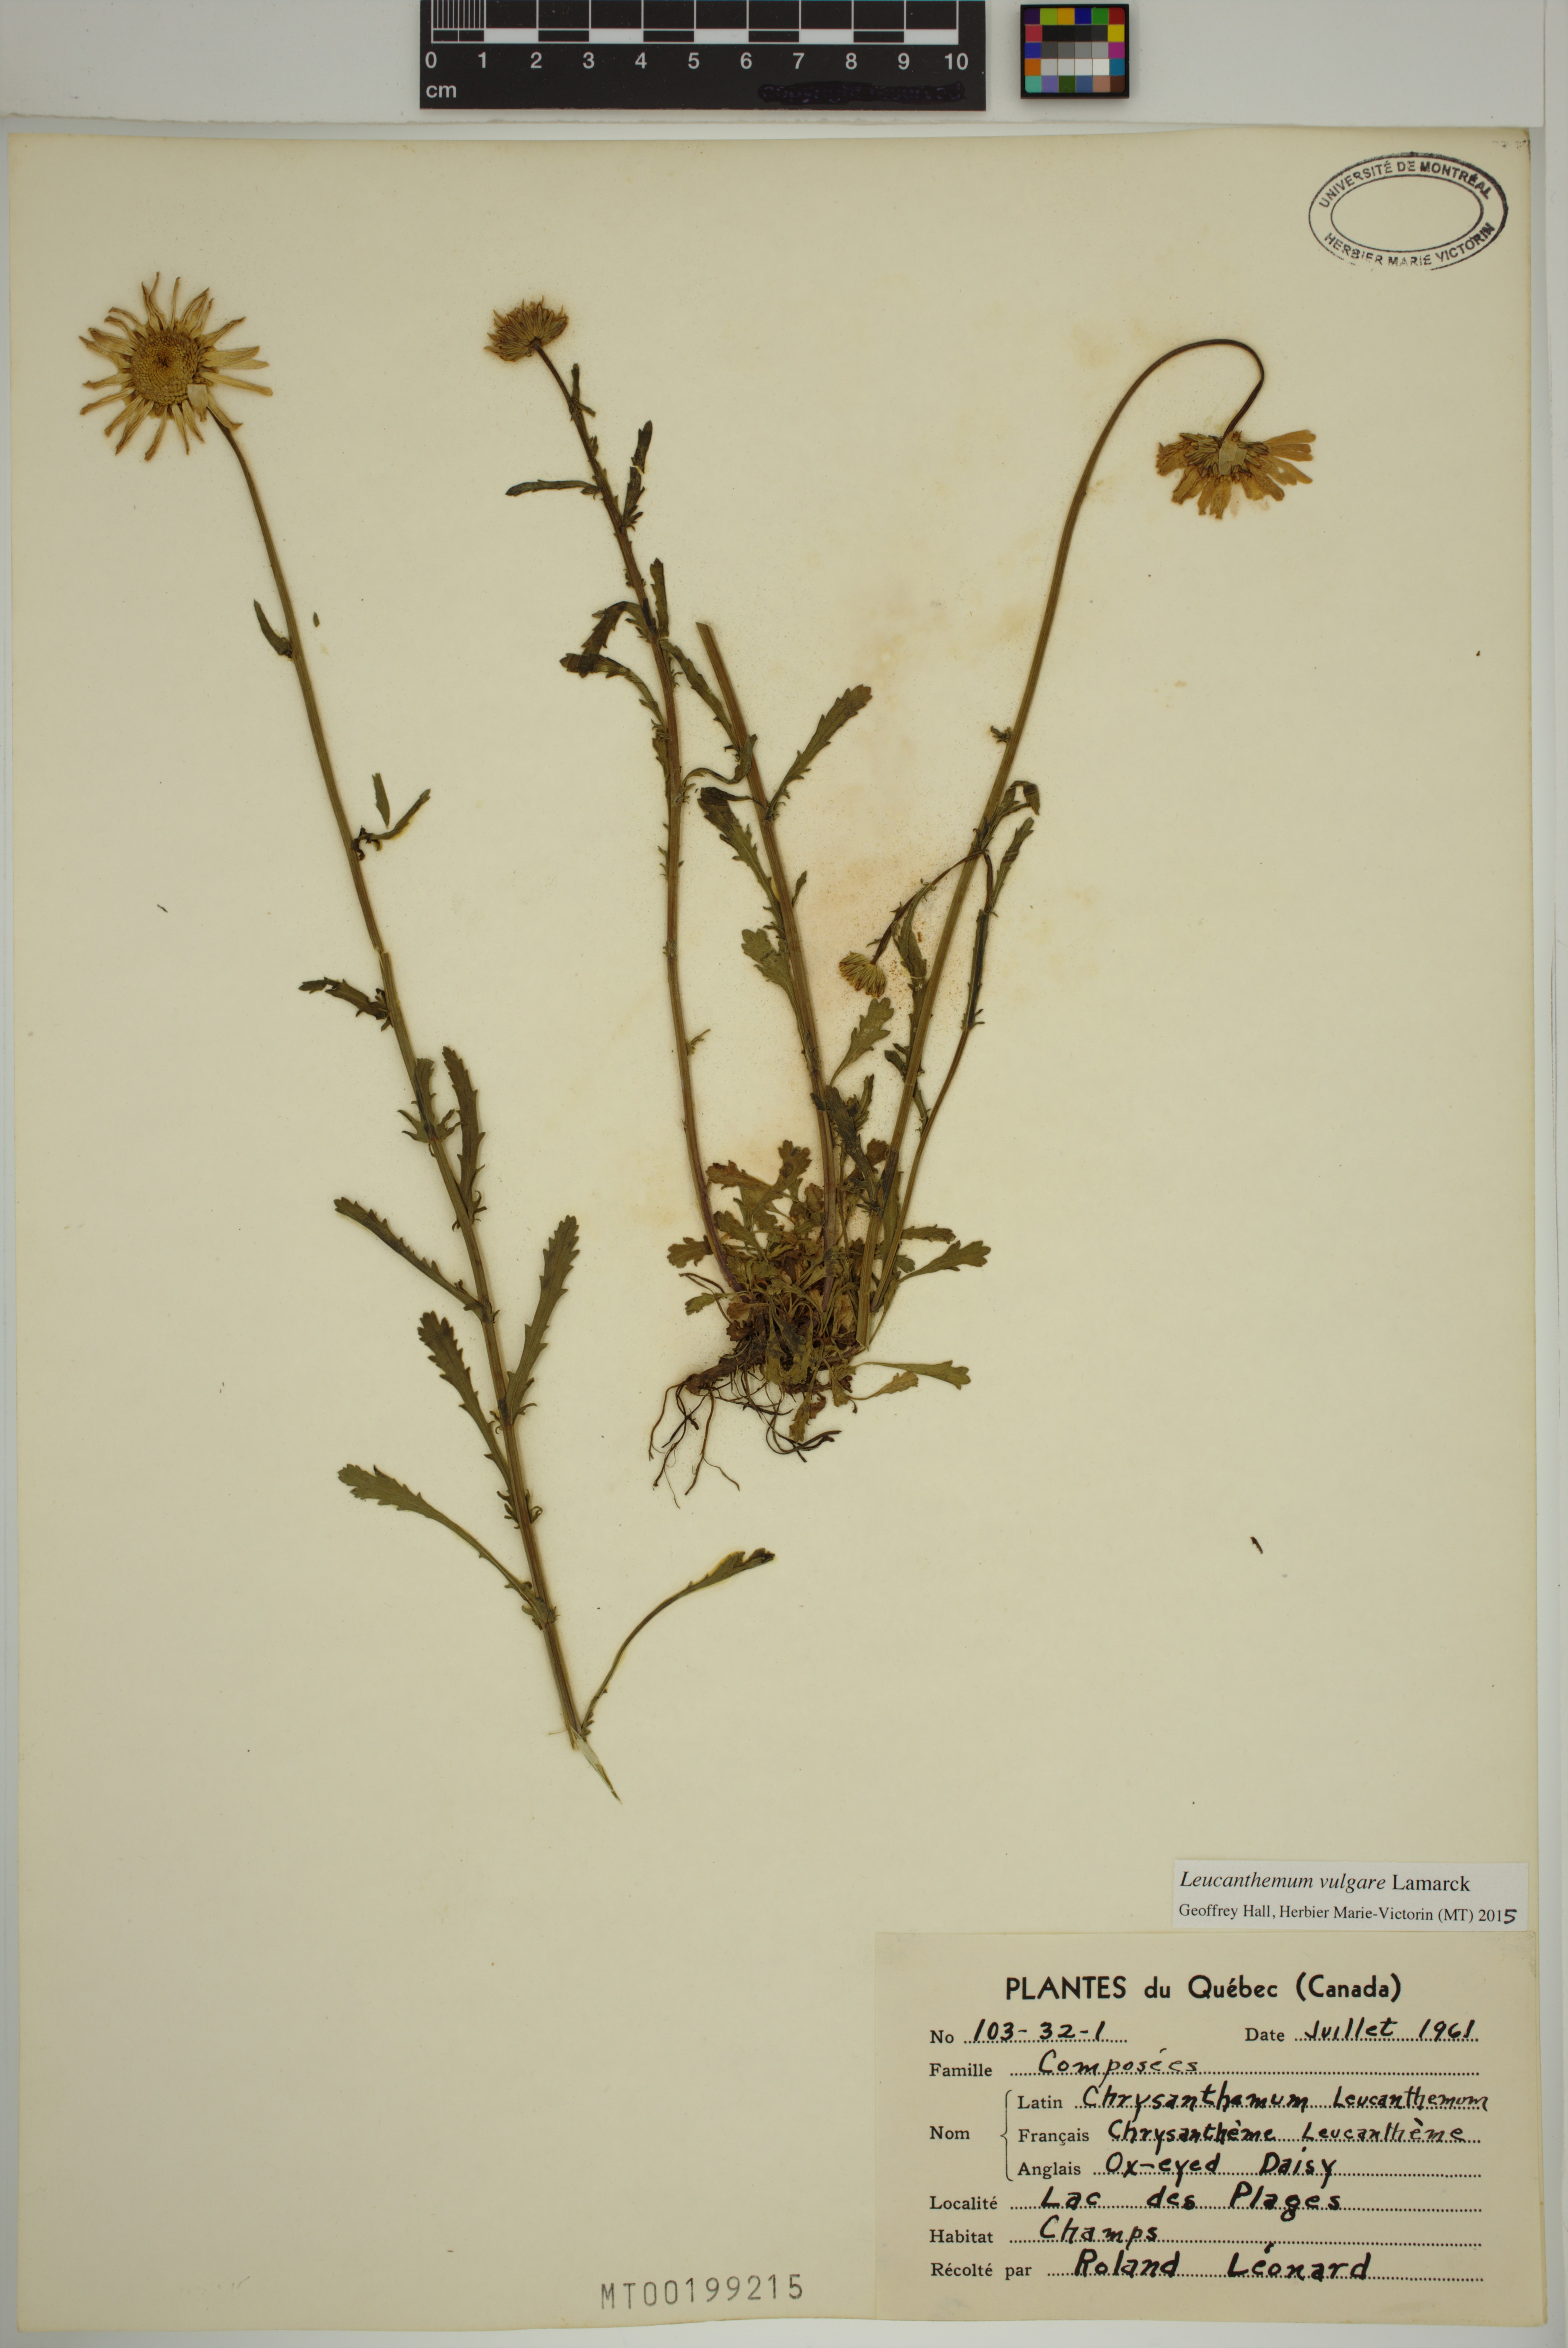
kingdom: Plantae
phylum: Tracheophyta
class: Magnoliopsida
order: Asterales
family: Asteraceae
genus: Leucanthemum
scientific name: Leucanthemum vulgare
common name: Oxeye daisy
